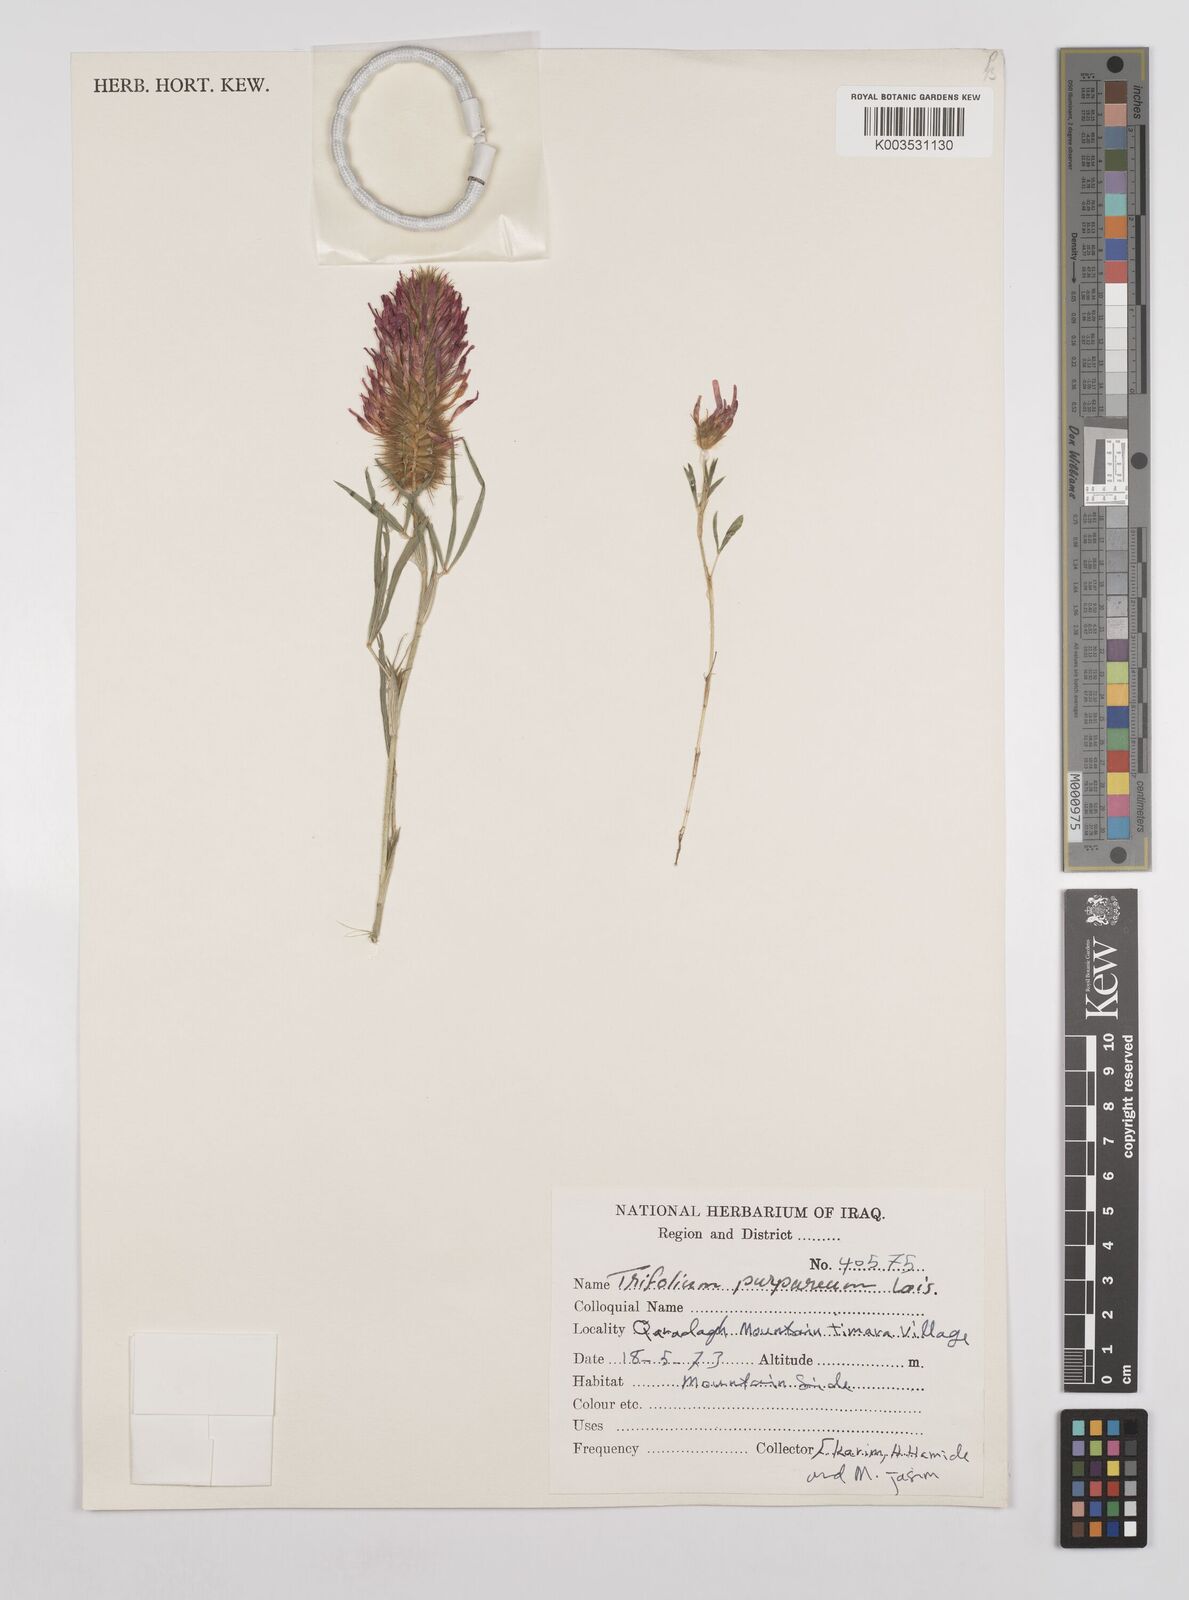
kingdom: Plantae
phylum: Tracheophyta
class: Magnoliopsida
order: Fabales
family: Fabaceae
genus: Trifolium
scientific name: Trifolium purpureum
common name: Purple clover
